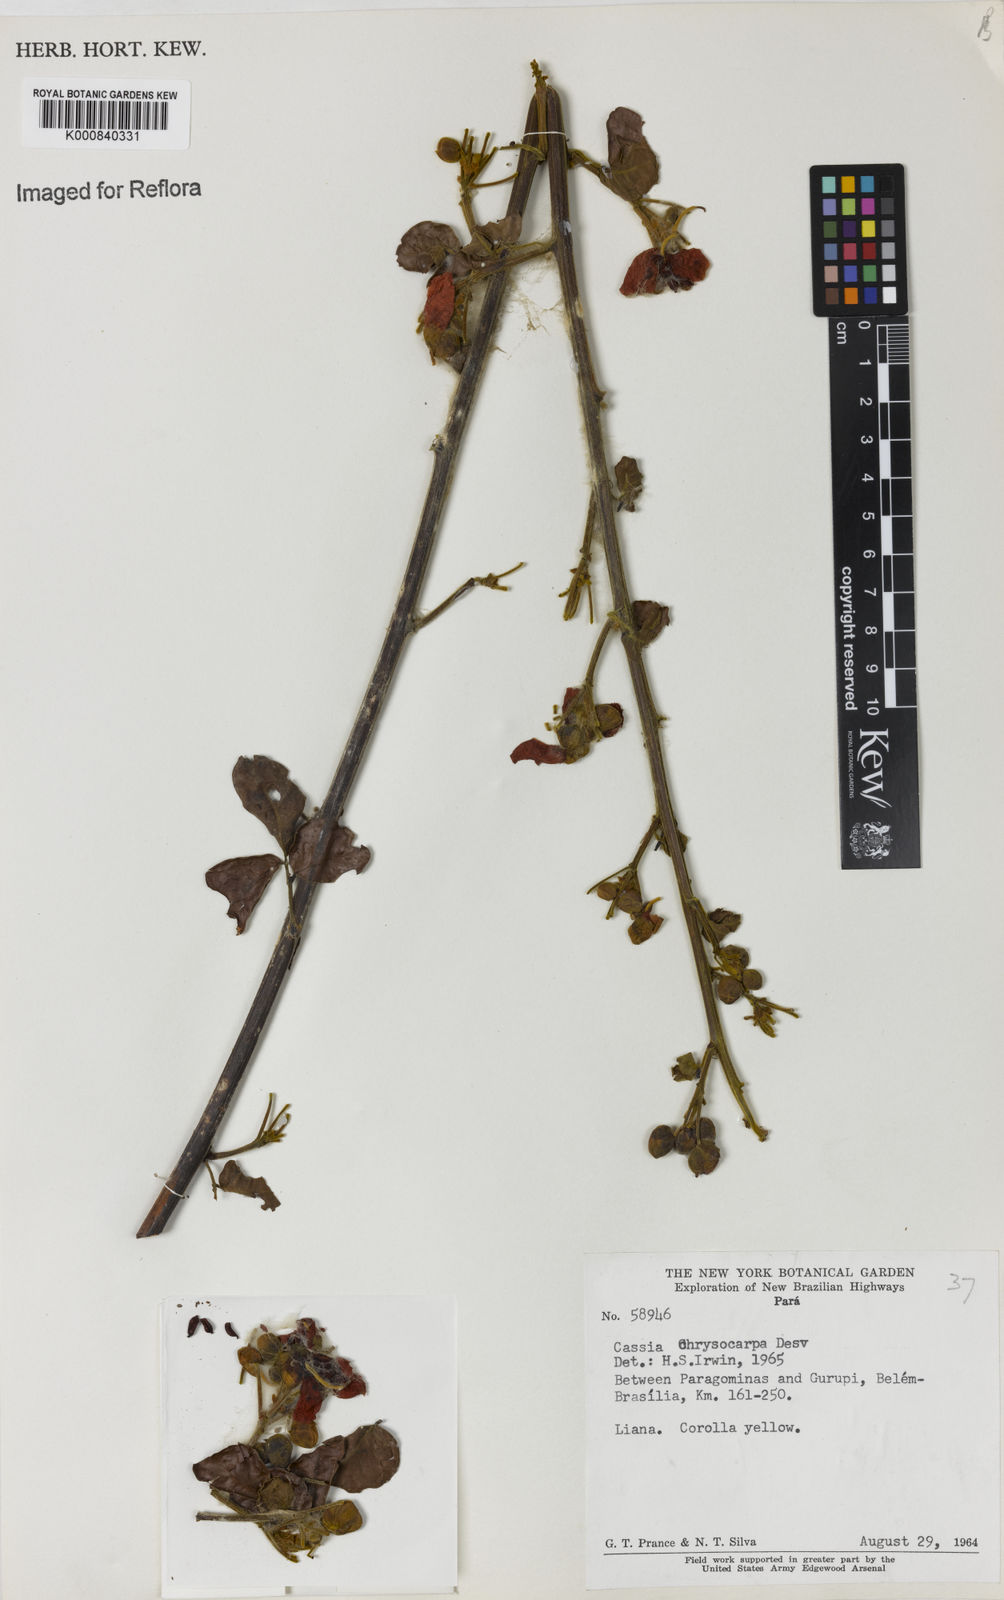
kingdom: Plantae
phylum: Tracheophyta
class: Magnoliopsida
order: Fabales
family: Fabaceae
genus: Senna
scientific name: Senna chrysocarpa
